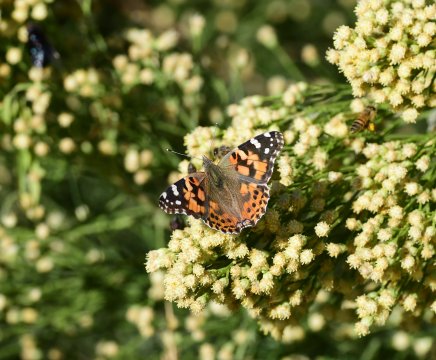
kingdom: Animalia
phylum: Arthropoda
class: Insecta
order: Lepidoptera
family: Nymphalidae
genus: Vanessa
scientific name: Vanessa cardui
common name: Painted Lady
